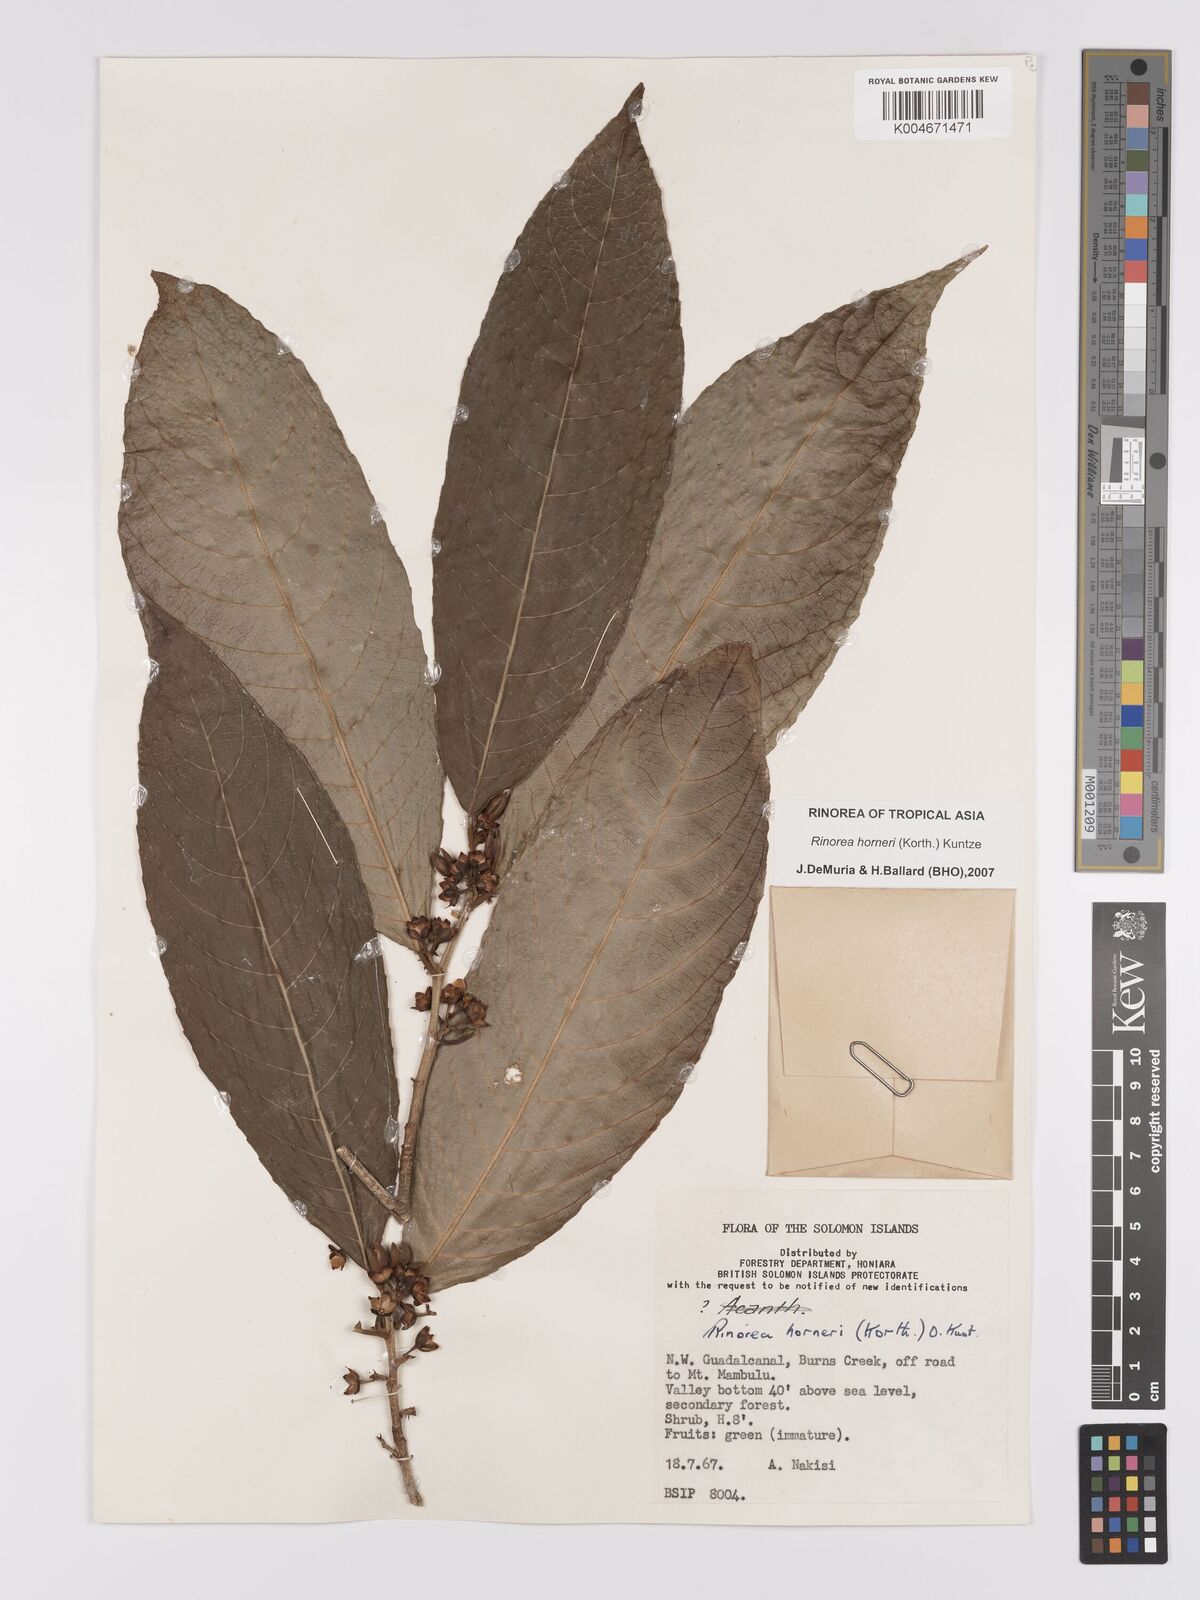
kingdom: Plantae
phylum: Tracheophyta
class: Magnoliopsida
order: Malpighiales
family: Violaceae
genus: Rinorea
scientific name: Rinorea horneri
